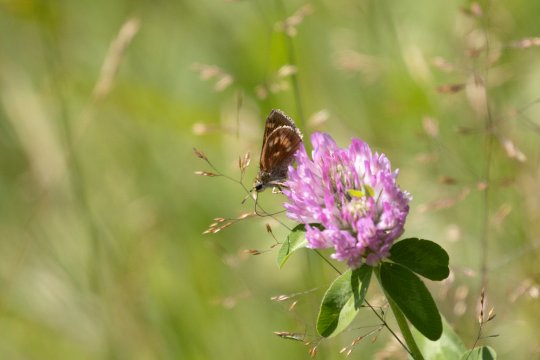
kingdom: Animalia
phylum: Arthropoda
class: Insecta
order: Lepidoptera
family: Hesperiidae
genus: Polites
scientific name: Polites
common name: Long Dash Skipper
